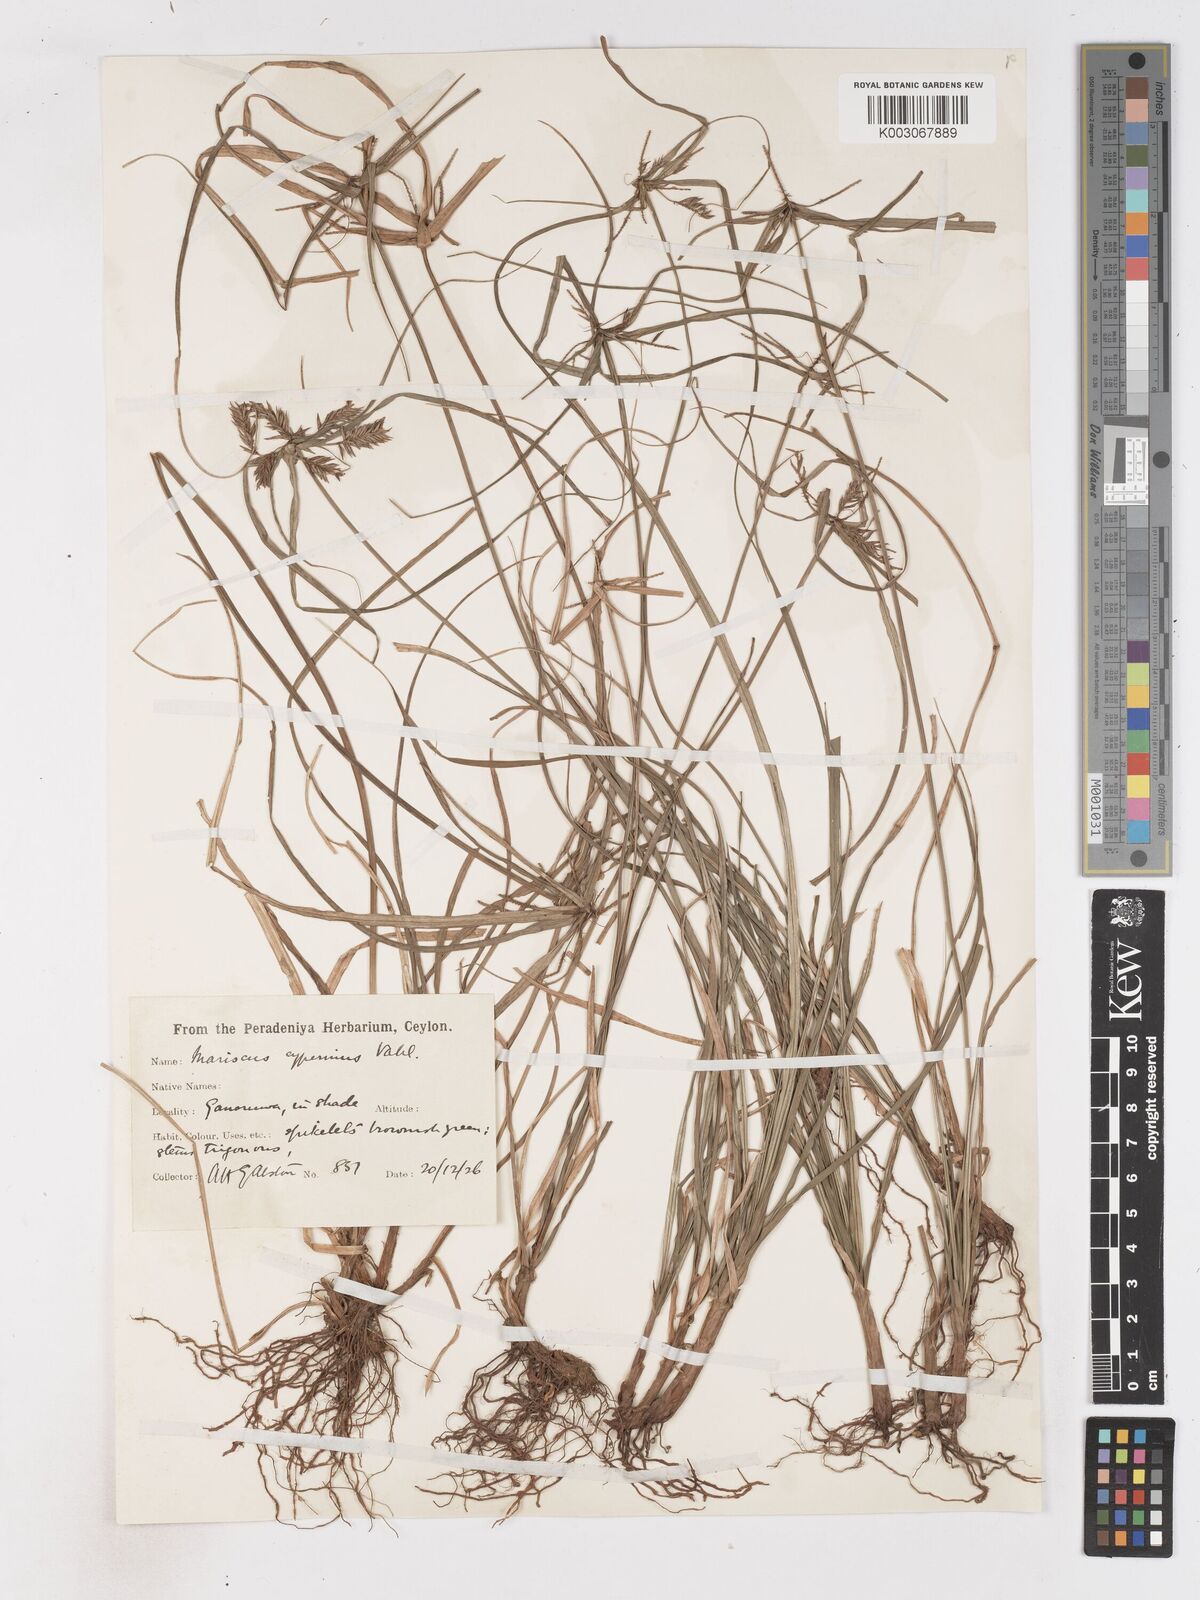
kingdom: Plantae
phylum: Tracheophyta
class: Liliopsida
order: Poales
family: Cyperaceae
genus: Cyperus
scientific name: Cyperus cyperinus
